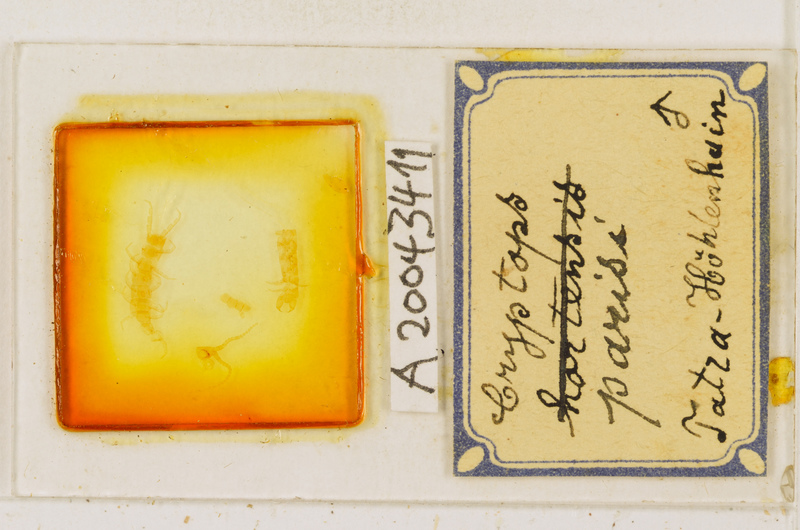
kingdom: Animalia
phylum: Arthropoda
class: Chilopoda
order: Scolopendromorpha
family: Cryptopidae
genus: Cryptops
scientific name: Cryptops parisi
